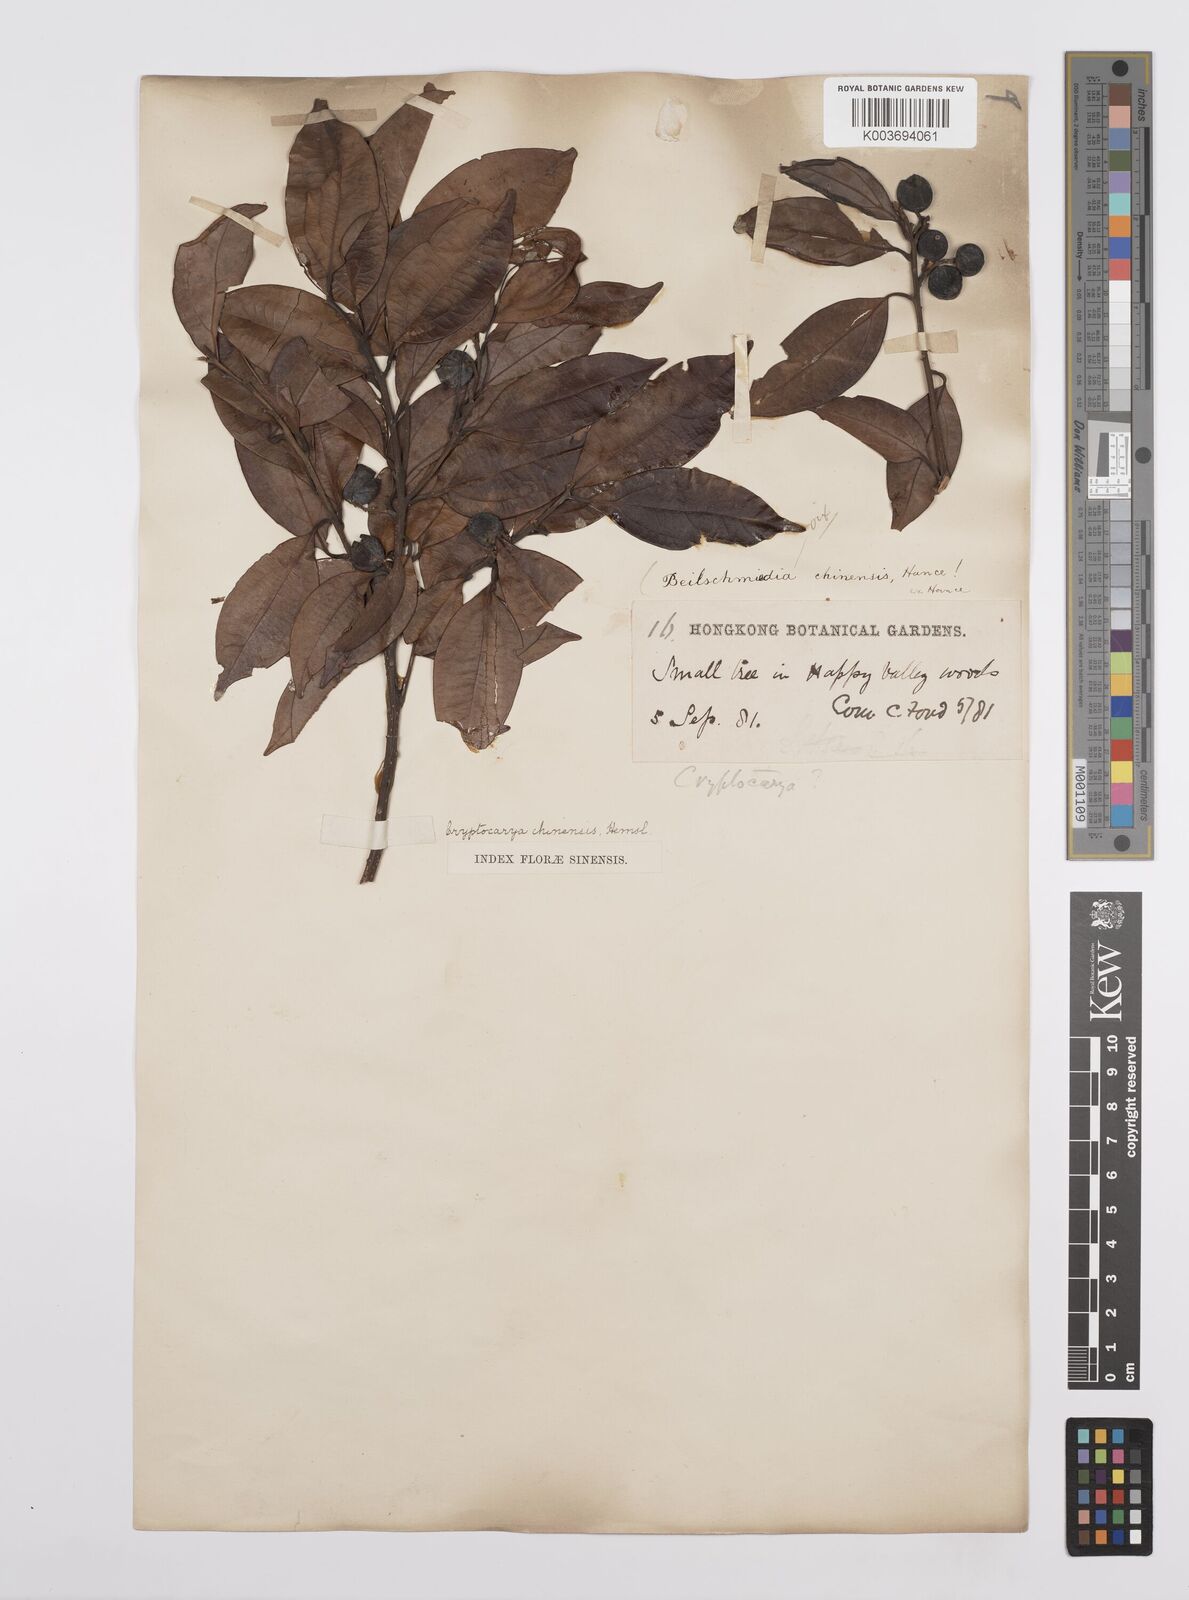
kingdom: Plantae
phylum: Tracheophyta
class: Magnoliopsida
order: Laurales
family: Lauraceae
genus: Cryptocarya
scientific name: Cryptocarya chinensis
